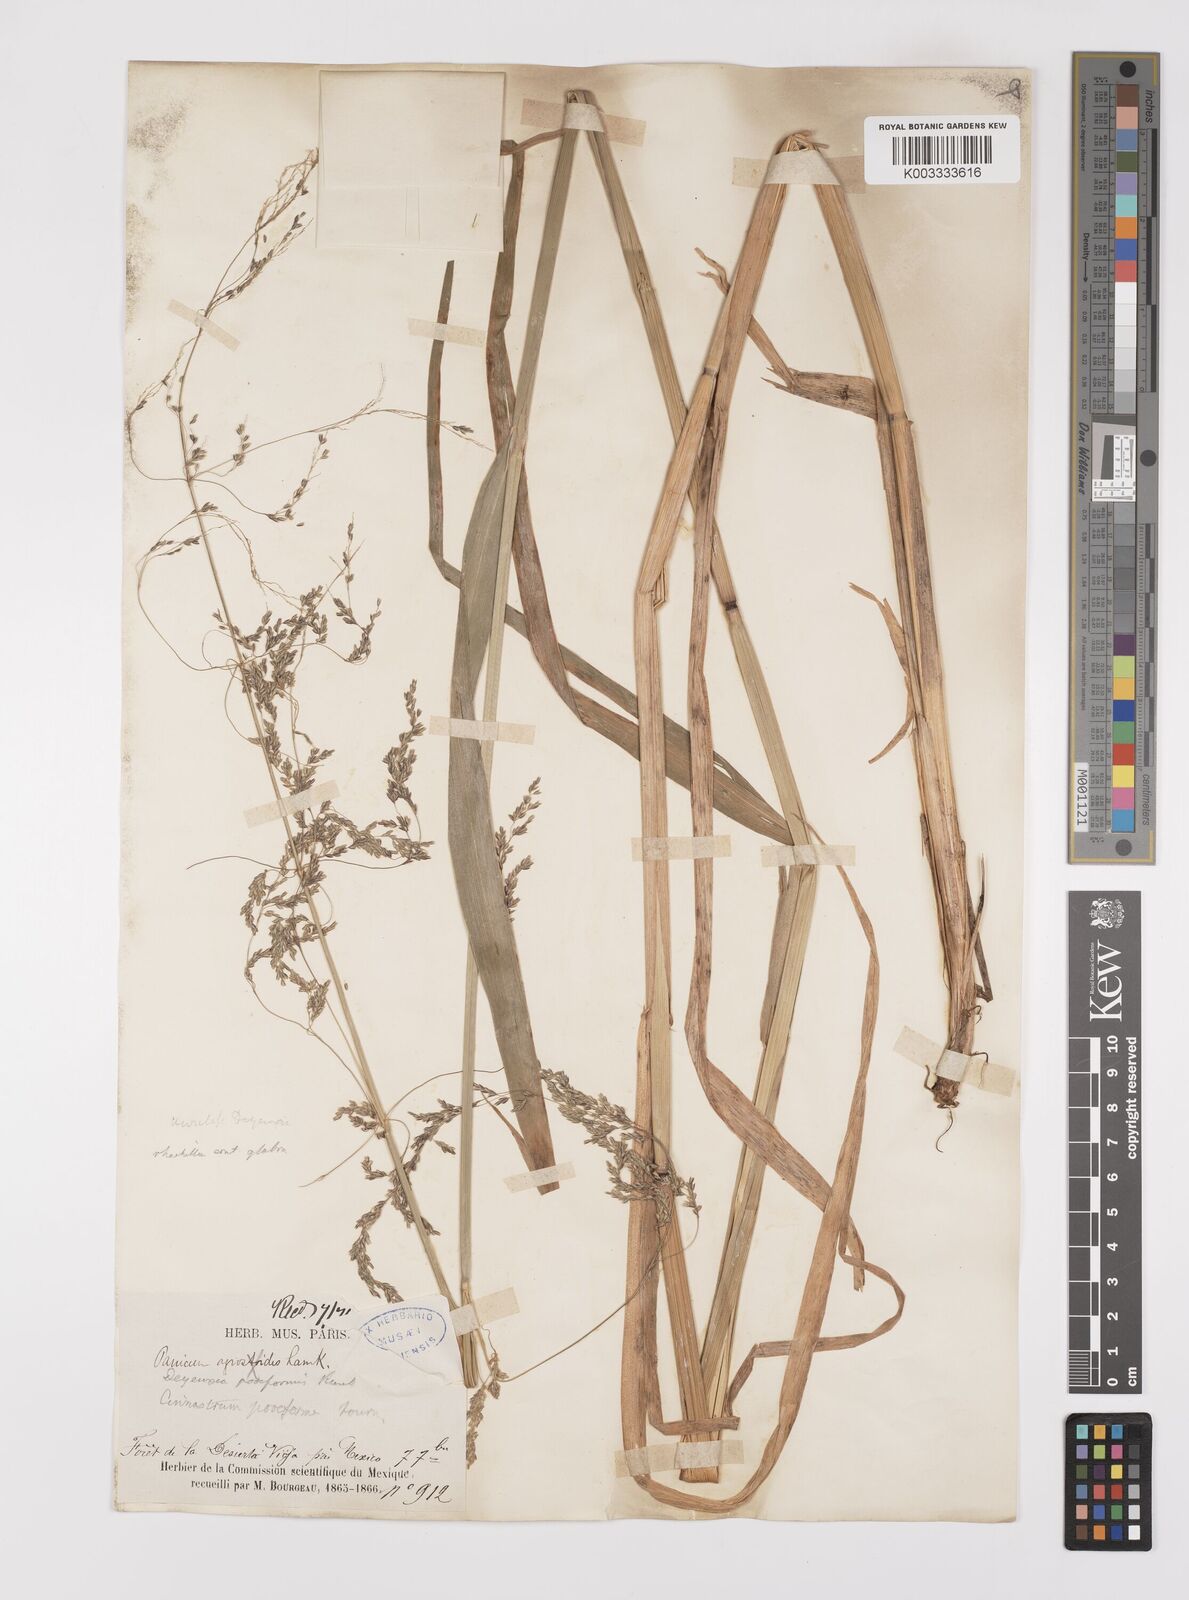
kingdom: Plantae
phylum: Tracheophyta
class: Liliopsida
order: Poales
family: Poaceae
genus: Cinnastrum
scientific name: Cinnastrum poiforme
